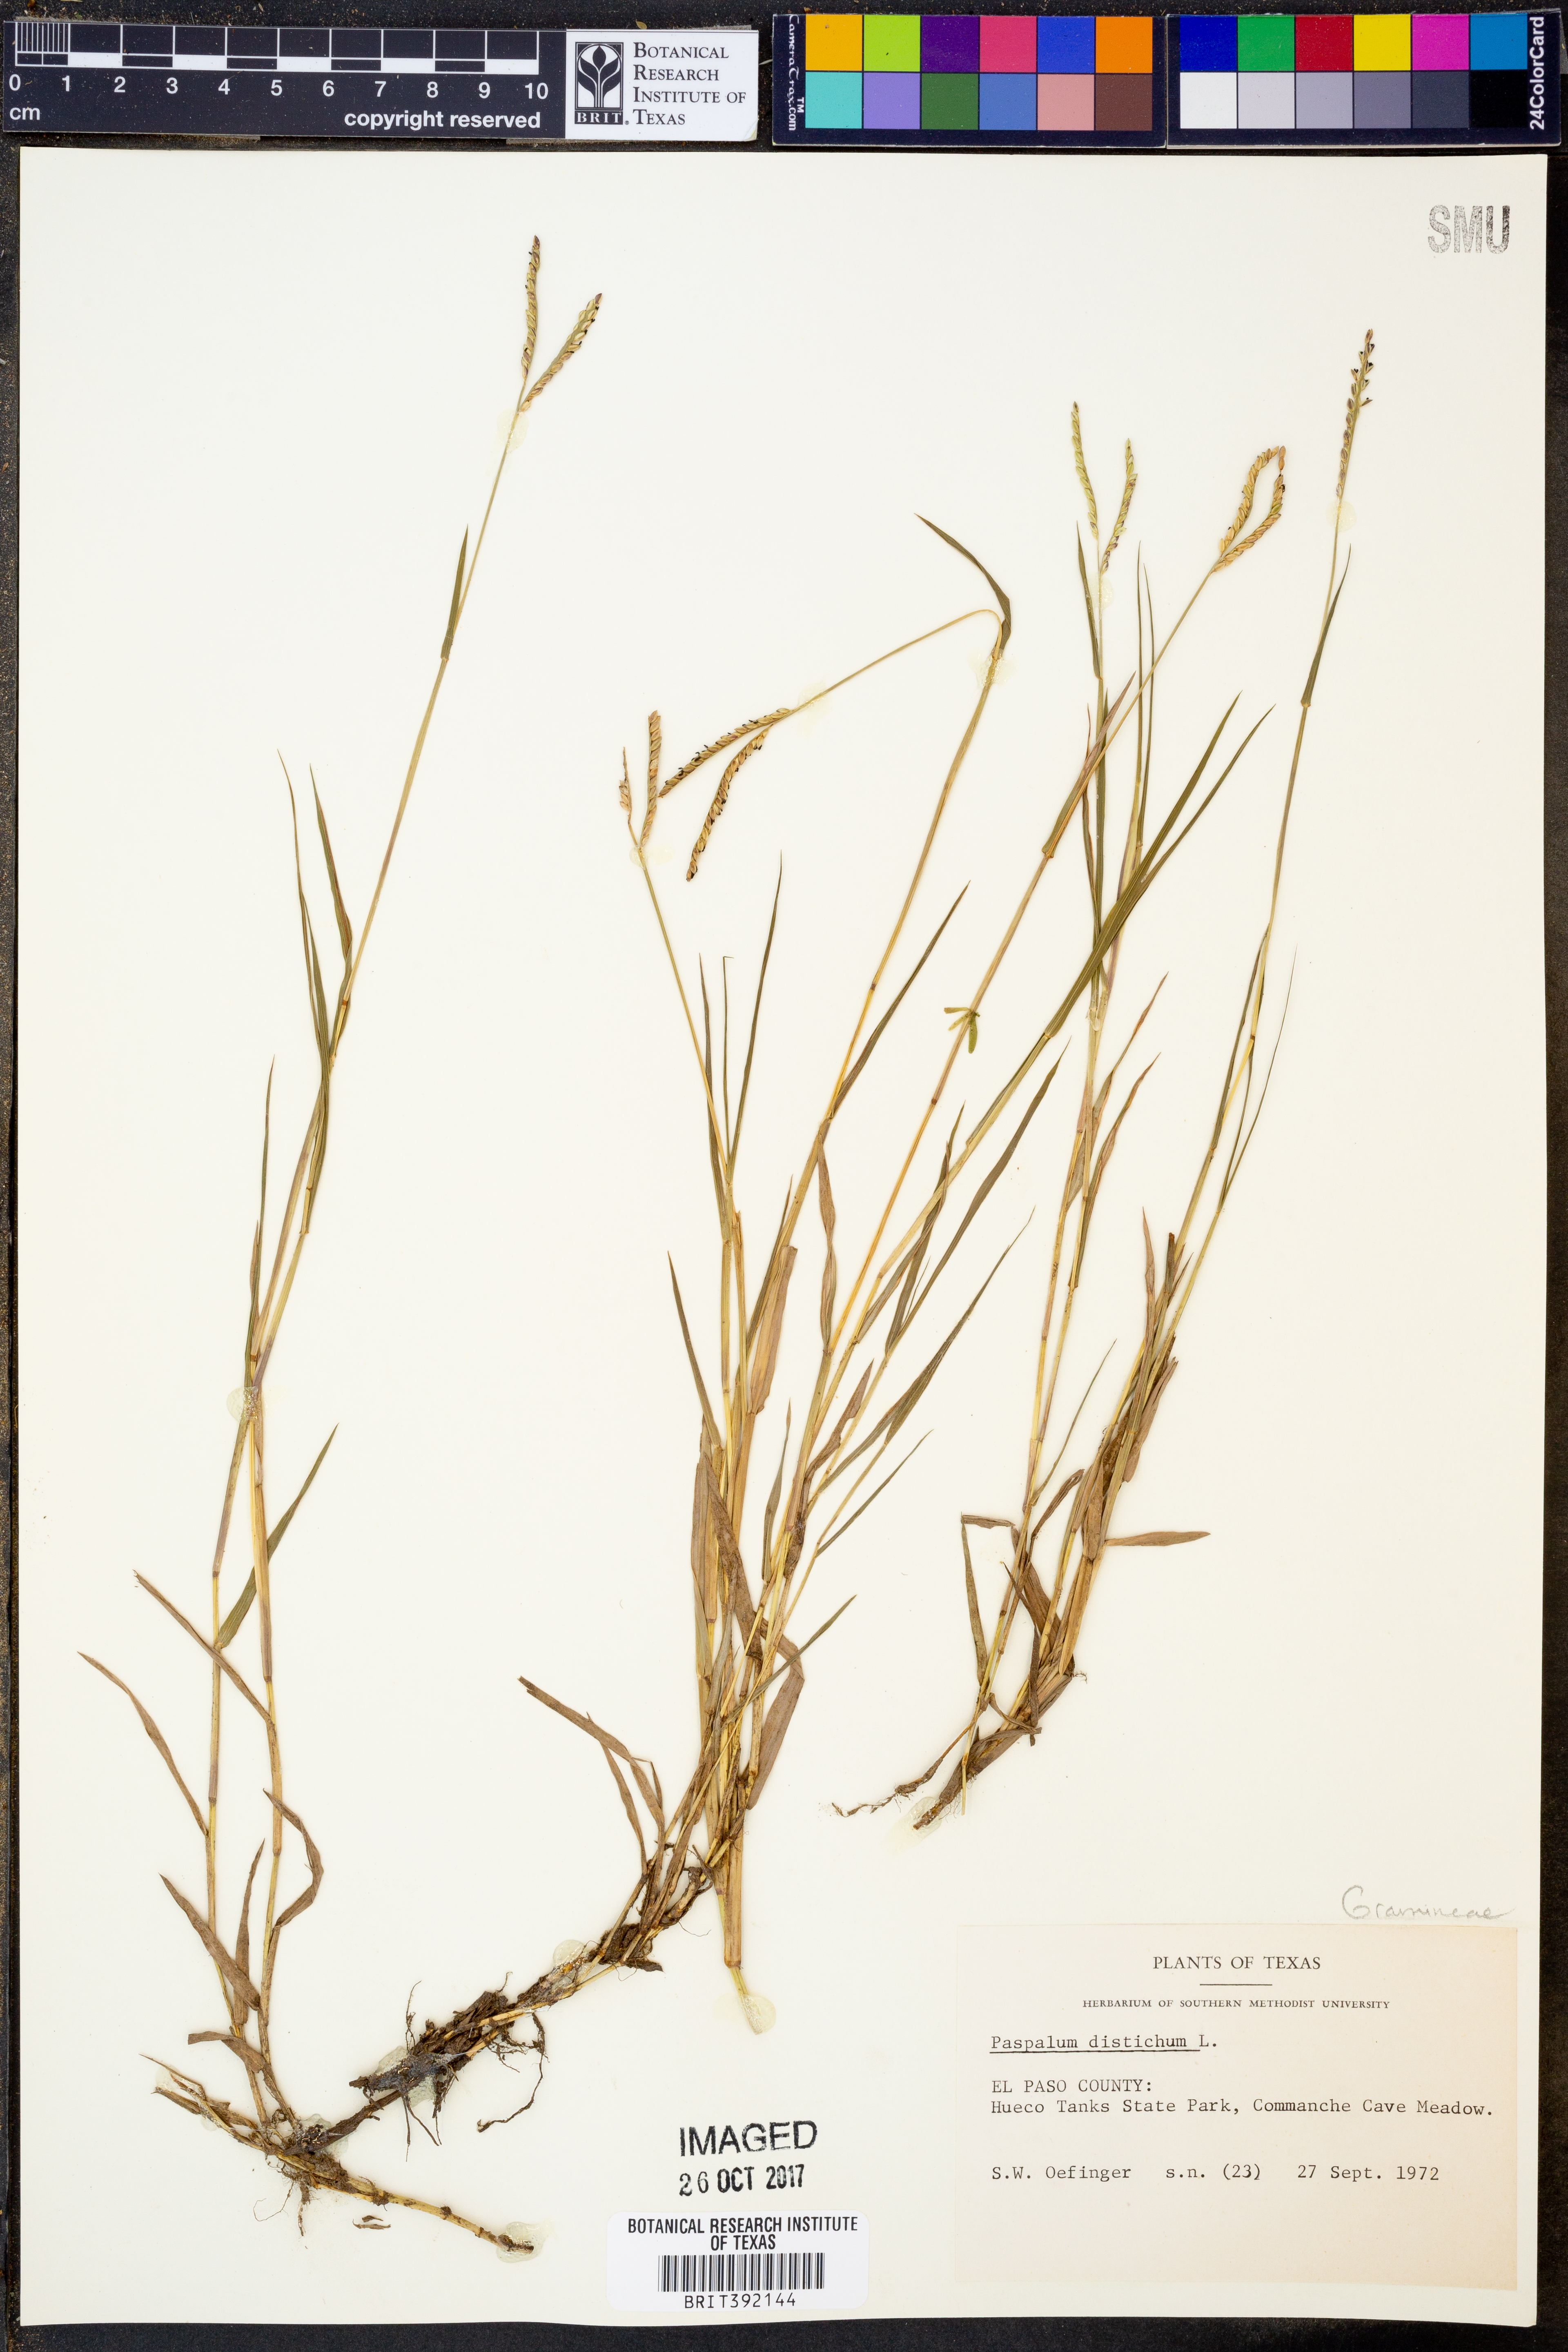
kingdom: Plantae
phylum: Tracheophyta
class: Liliopsida
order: Poales
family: Poaceae
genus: Paspalum
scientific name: Paspalum distichum
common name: Knotgrass
